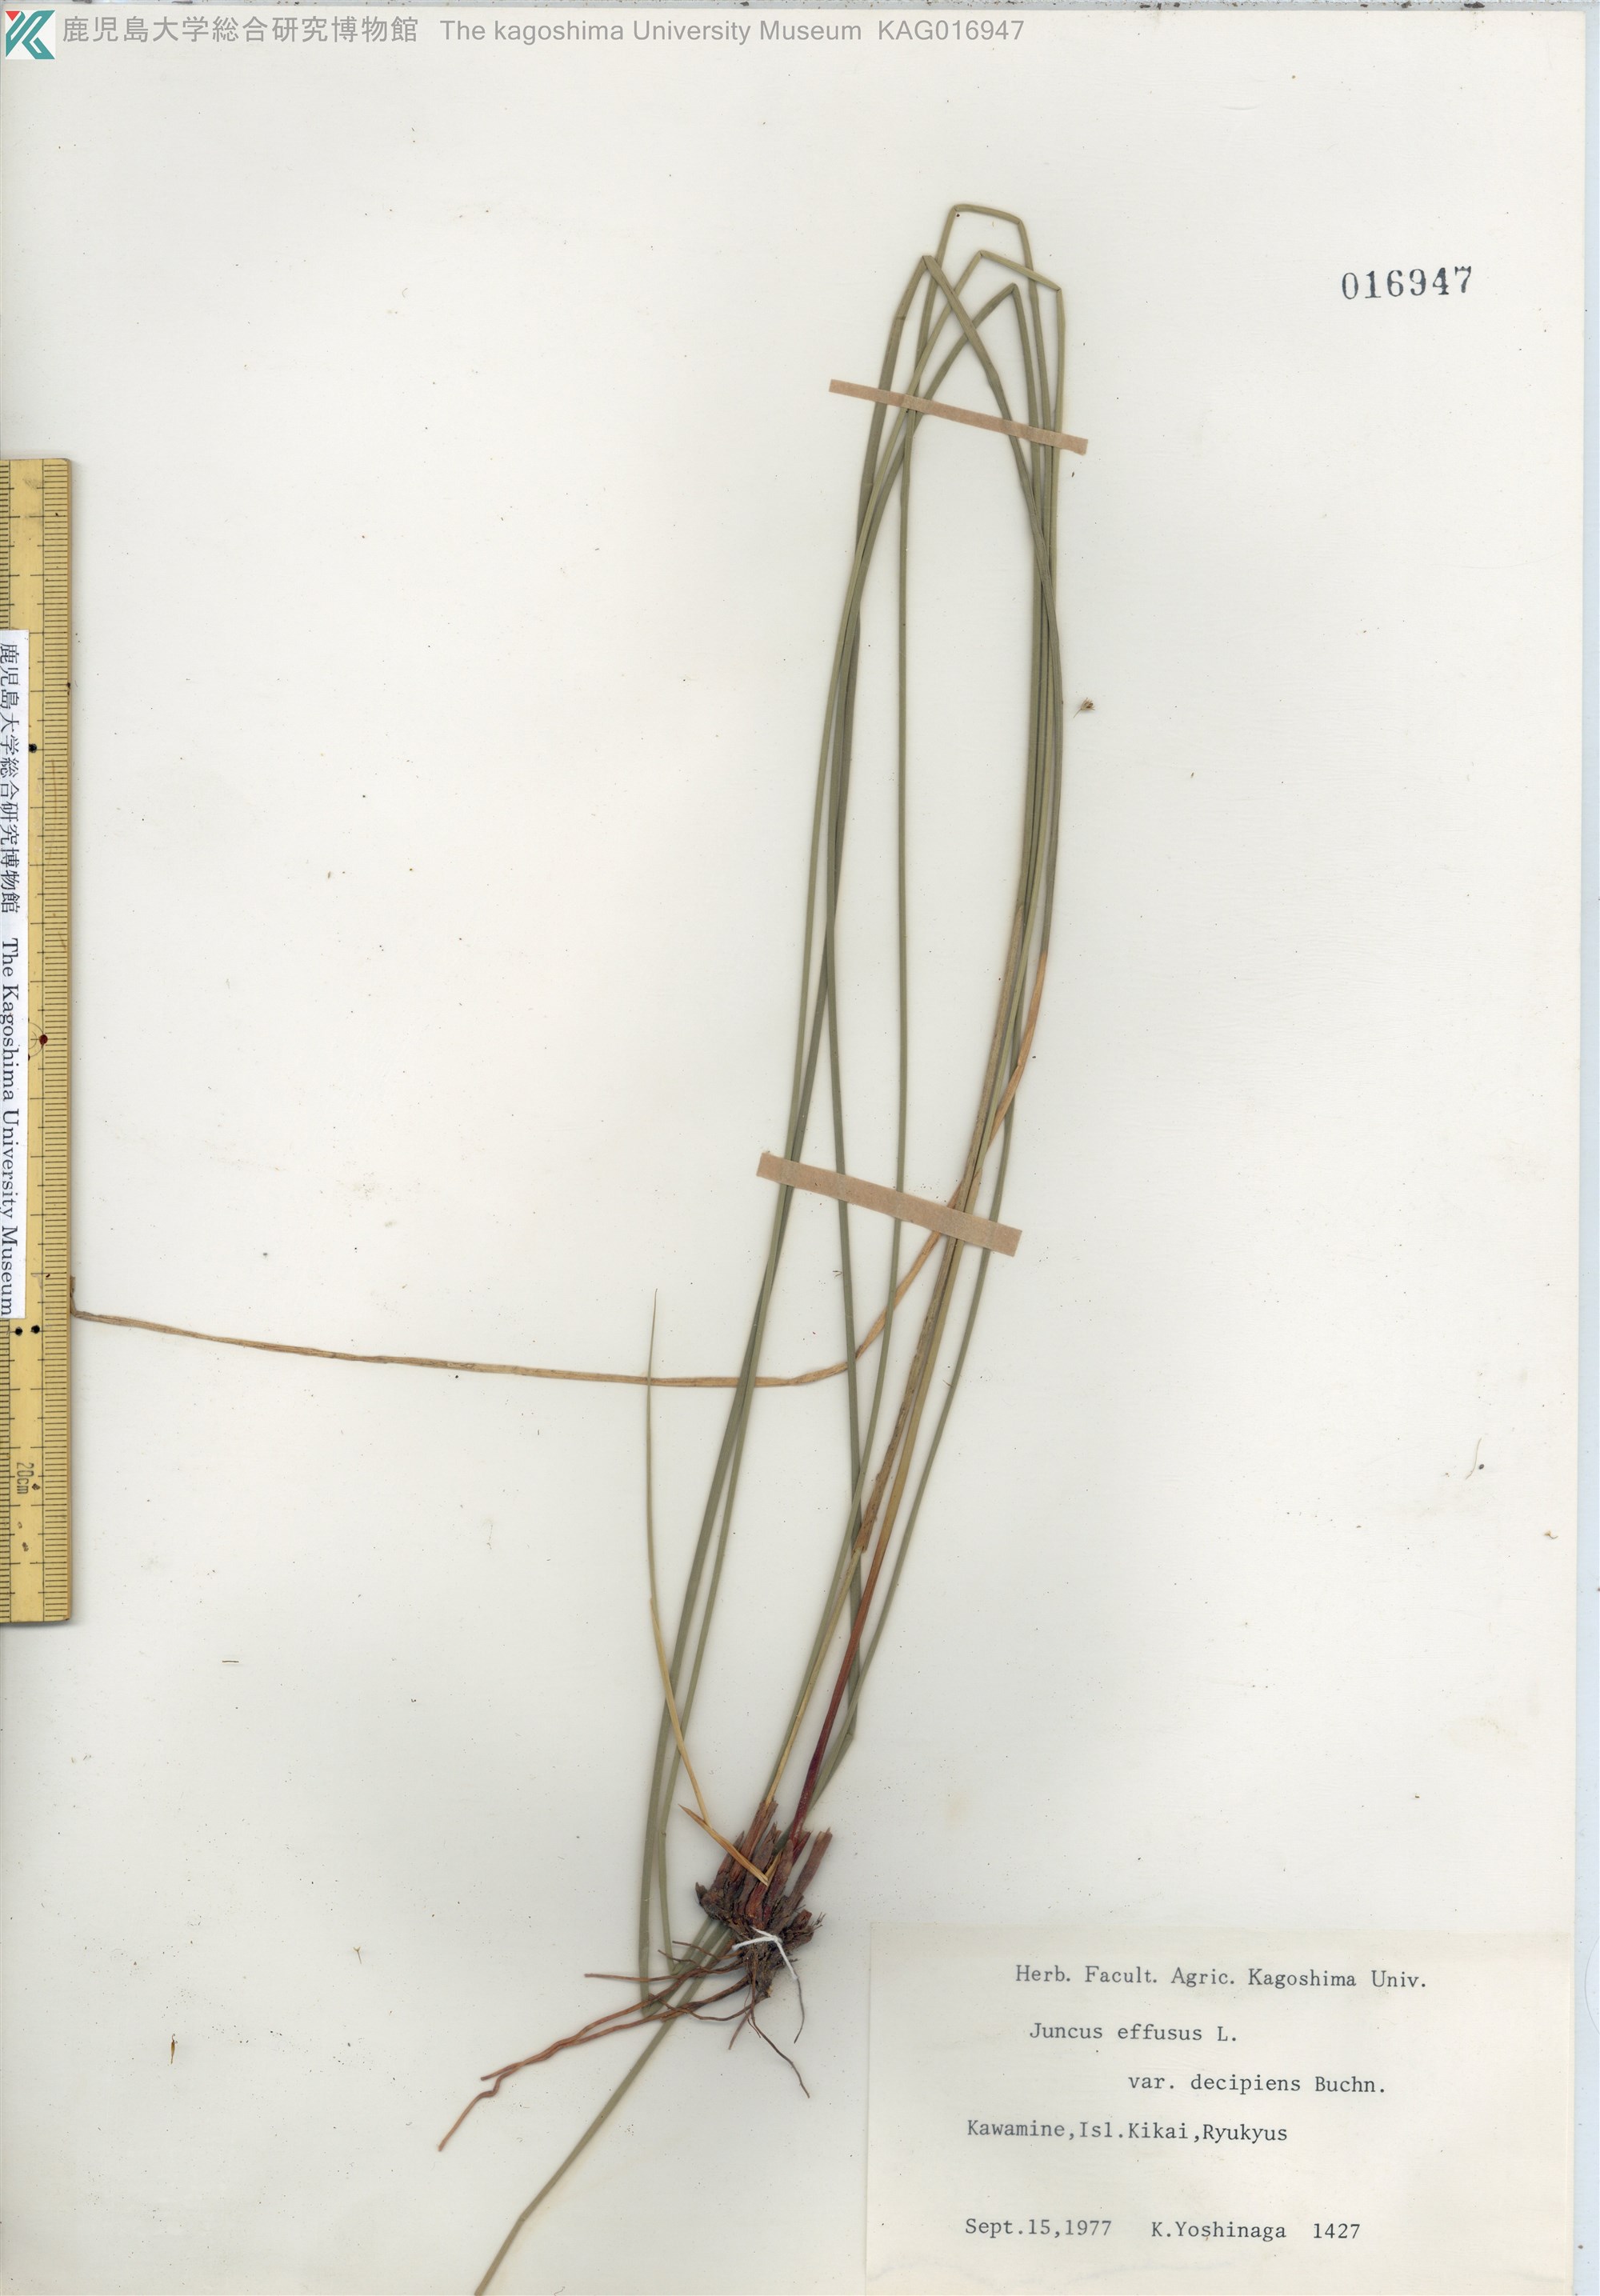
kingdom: Plantae
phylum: Tracheophyta
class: Liliopsida
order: Poales
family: Juncaceae
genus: Juncus
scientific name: Juncus decipiens
